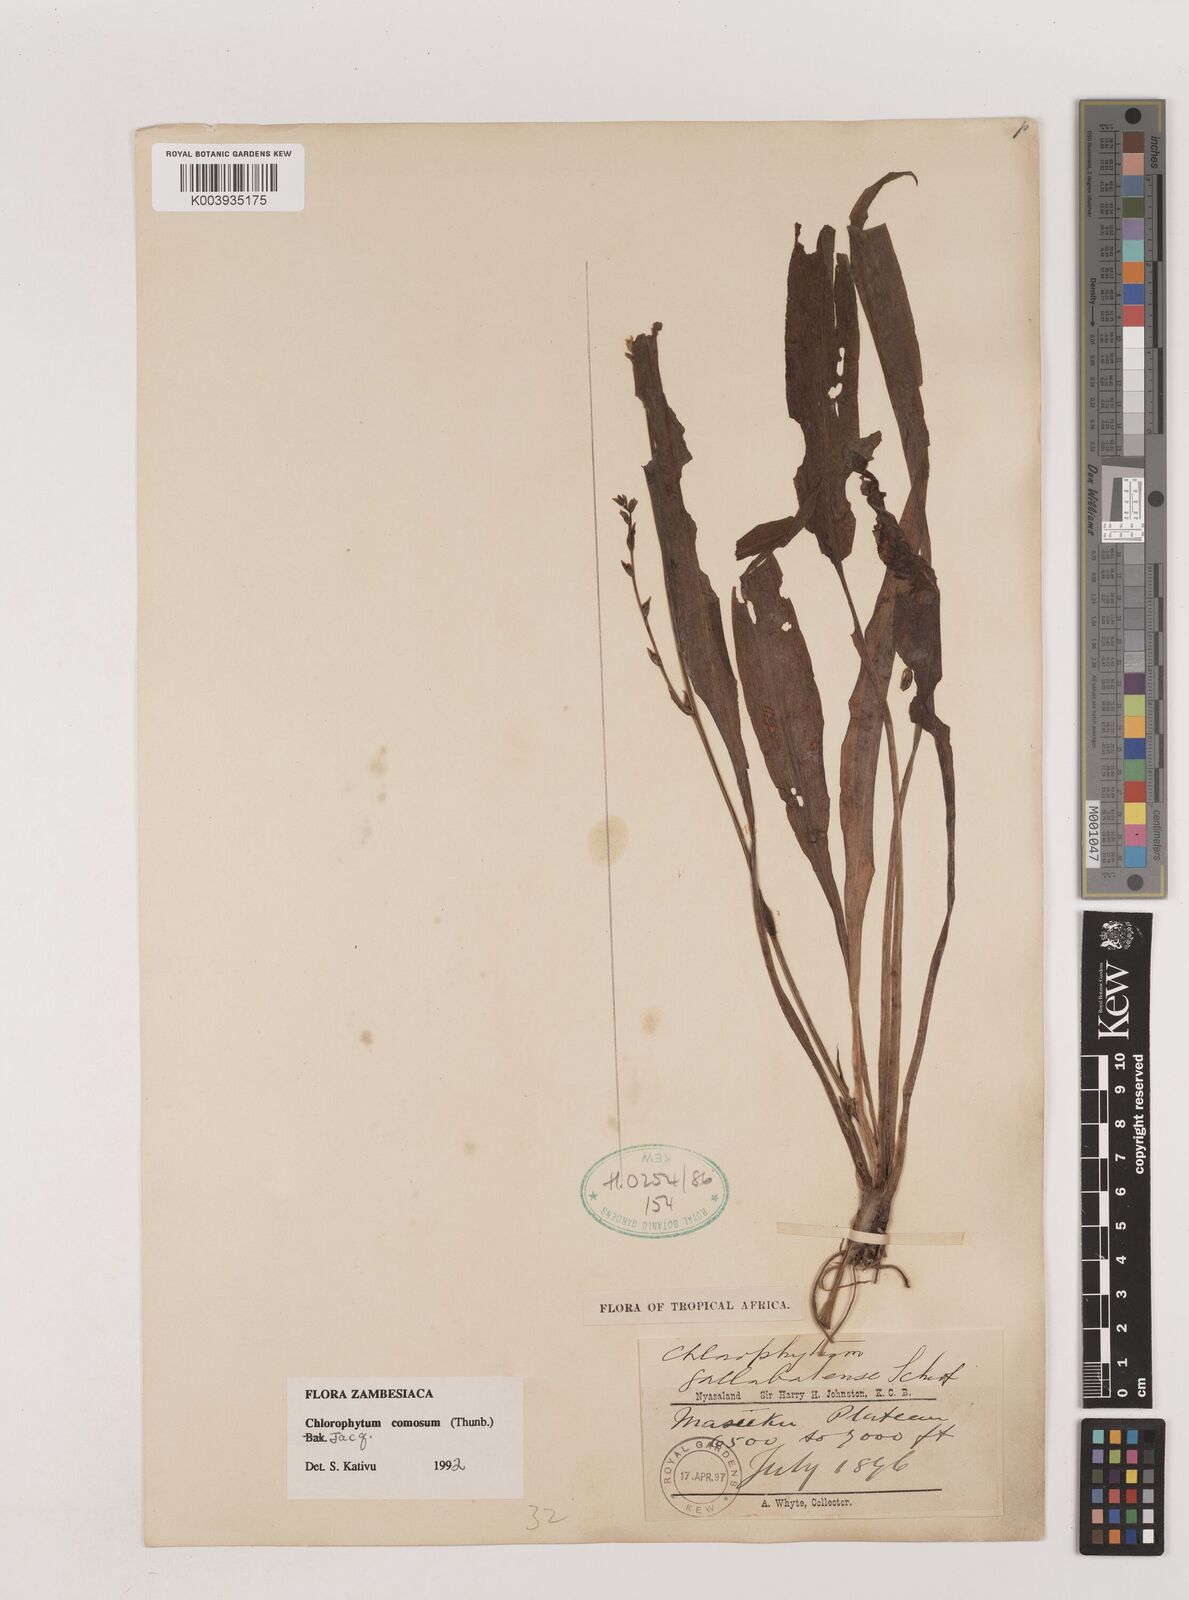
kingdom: Plantae
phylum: Tracheophyta
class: Liliopsida
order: Asparagales
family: Asparagaceae
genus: Chlorophytum
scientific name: Chlorophytum comosum
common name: Spider plant
